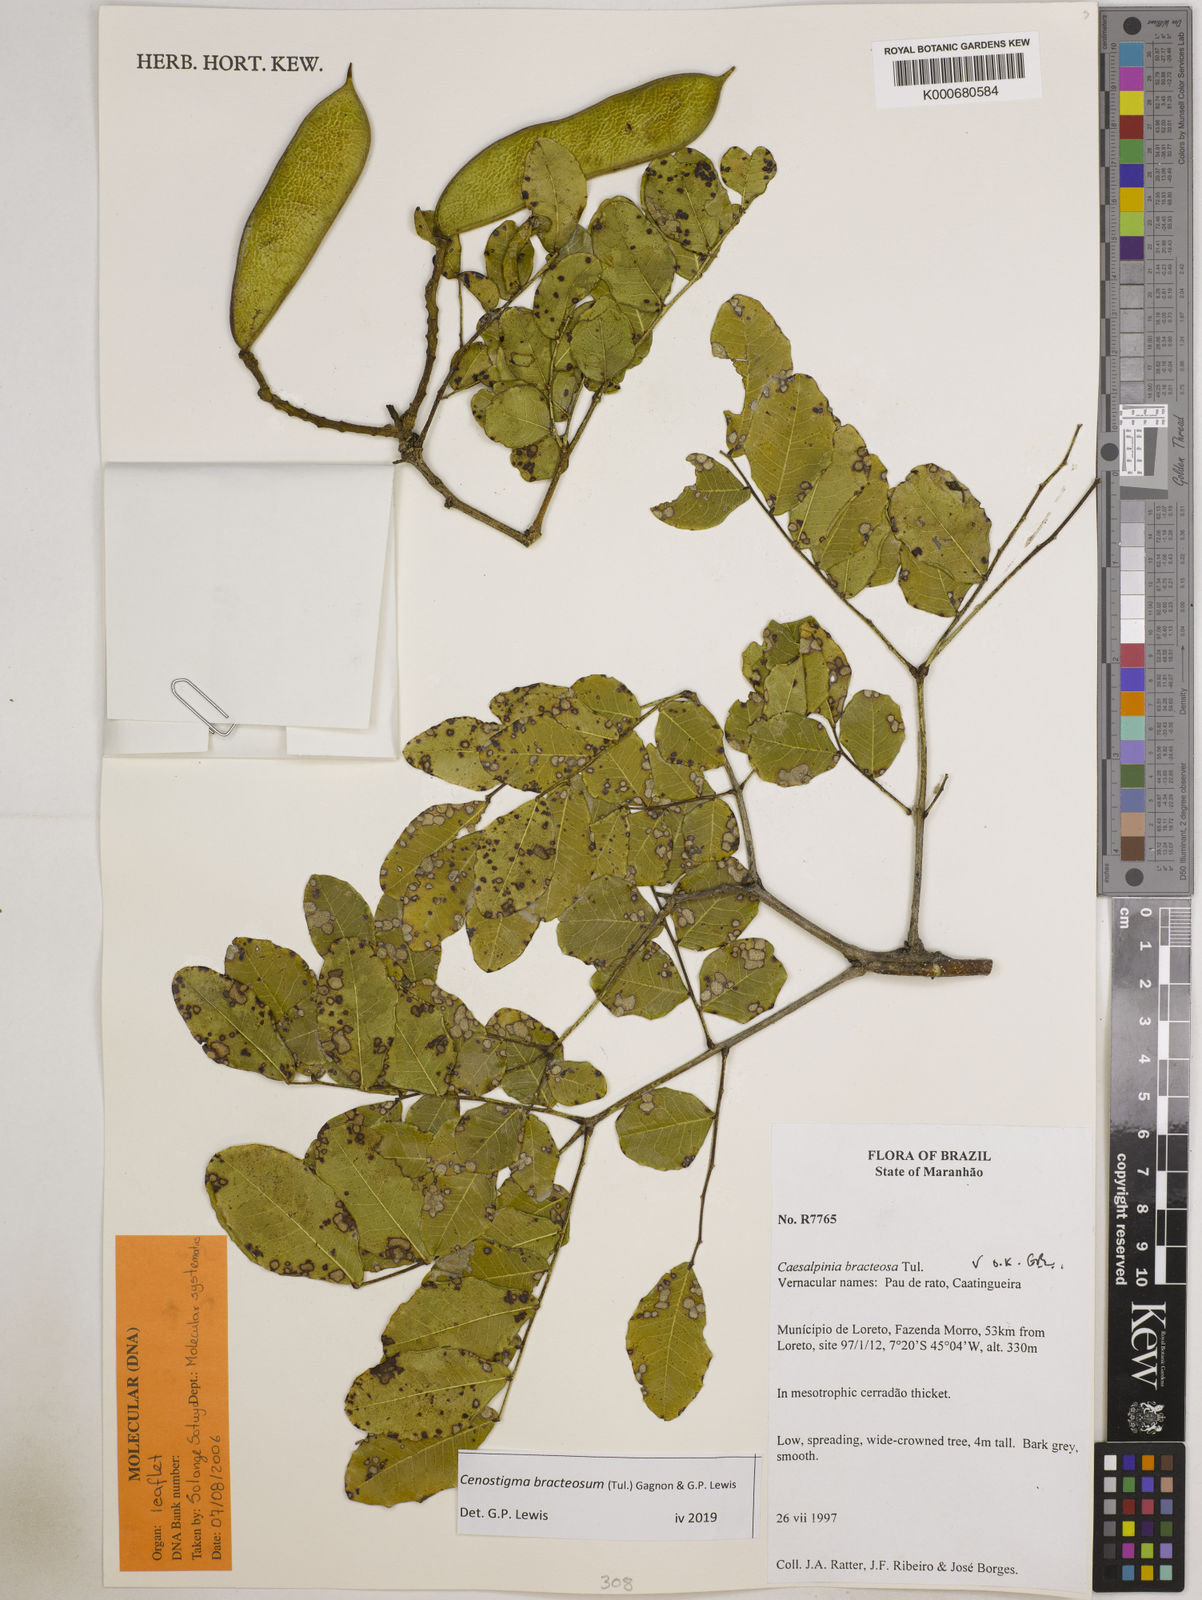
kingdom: Plantae
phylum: Tracheophyta
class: Magnoliopsida
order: Fabales
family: Fabaceae
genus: Cenostigma
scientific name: Cenostigma bracteosum
